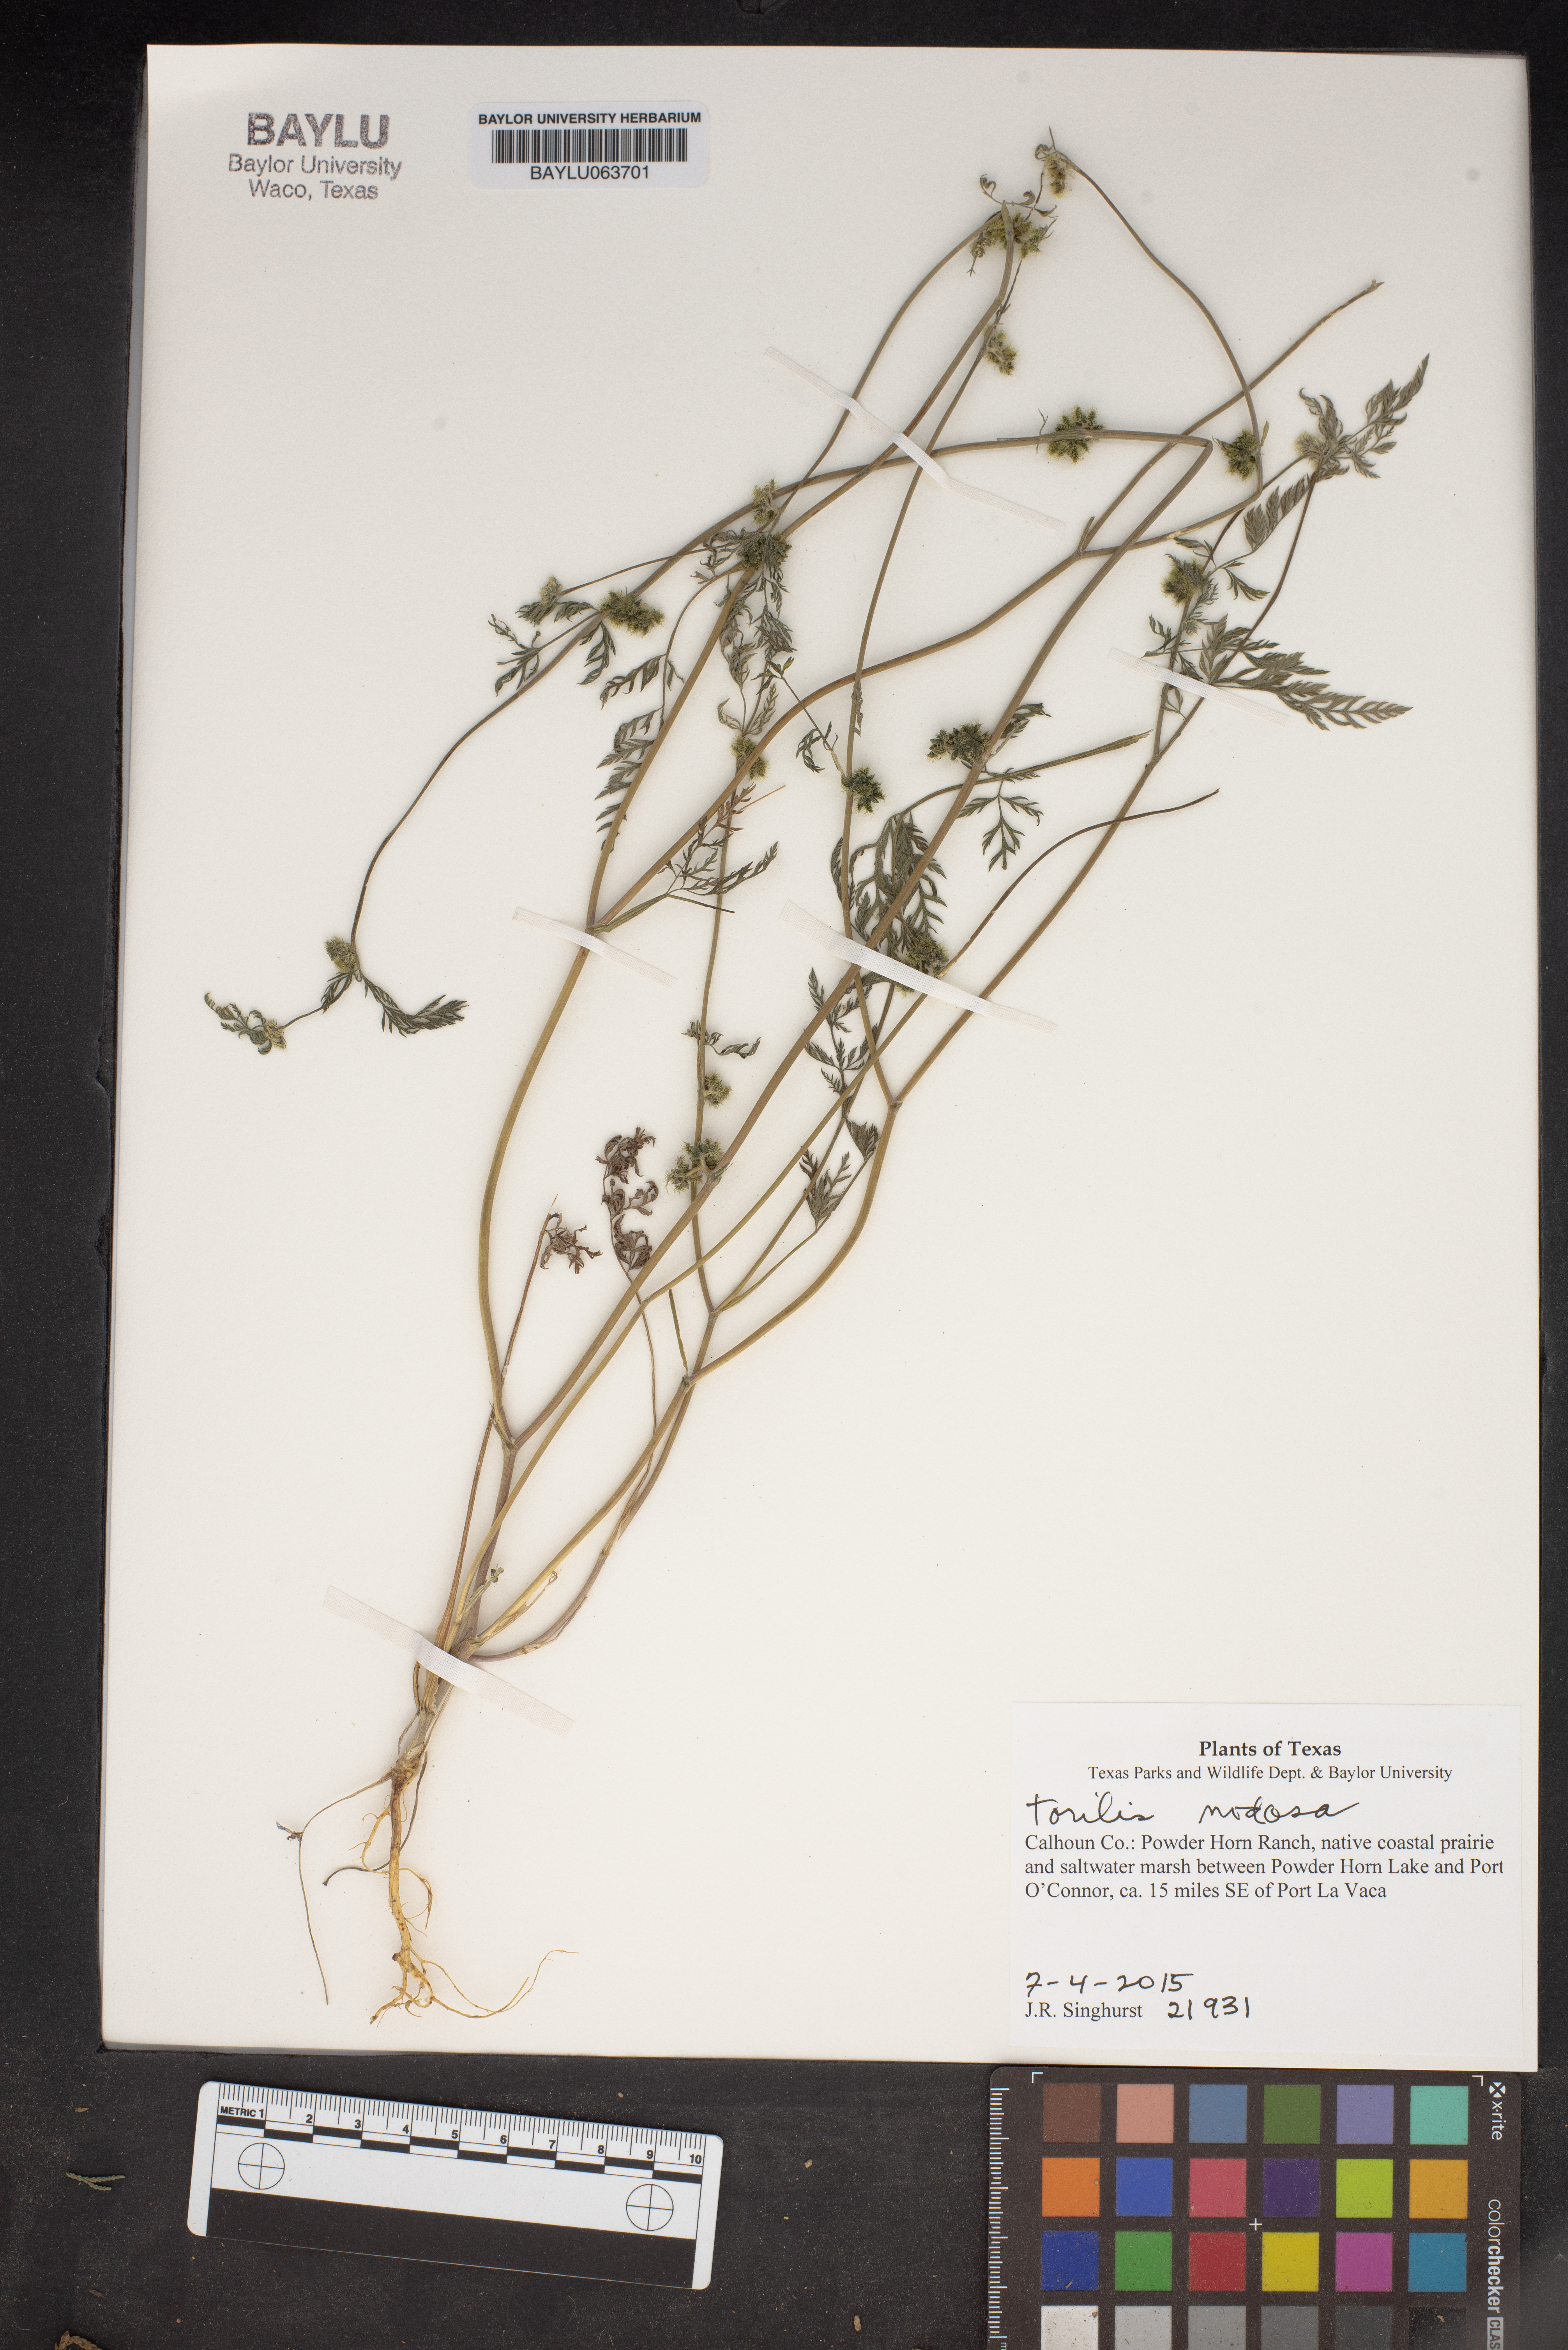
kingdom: Plantae
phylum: Tracheophyta
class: Magnoliopsida
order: Apiales
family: Apiaceae
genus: Torilis
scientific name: Torilis nodosa
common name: Knotted hedge-parsley
